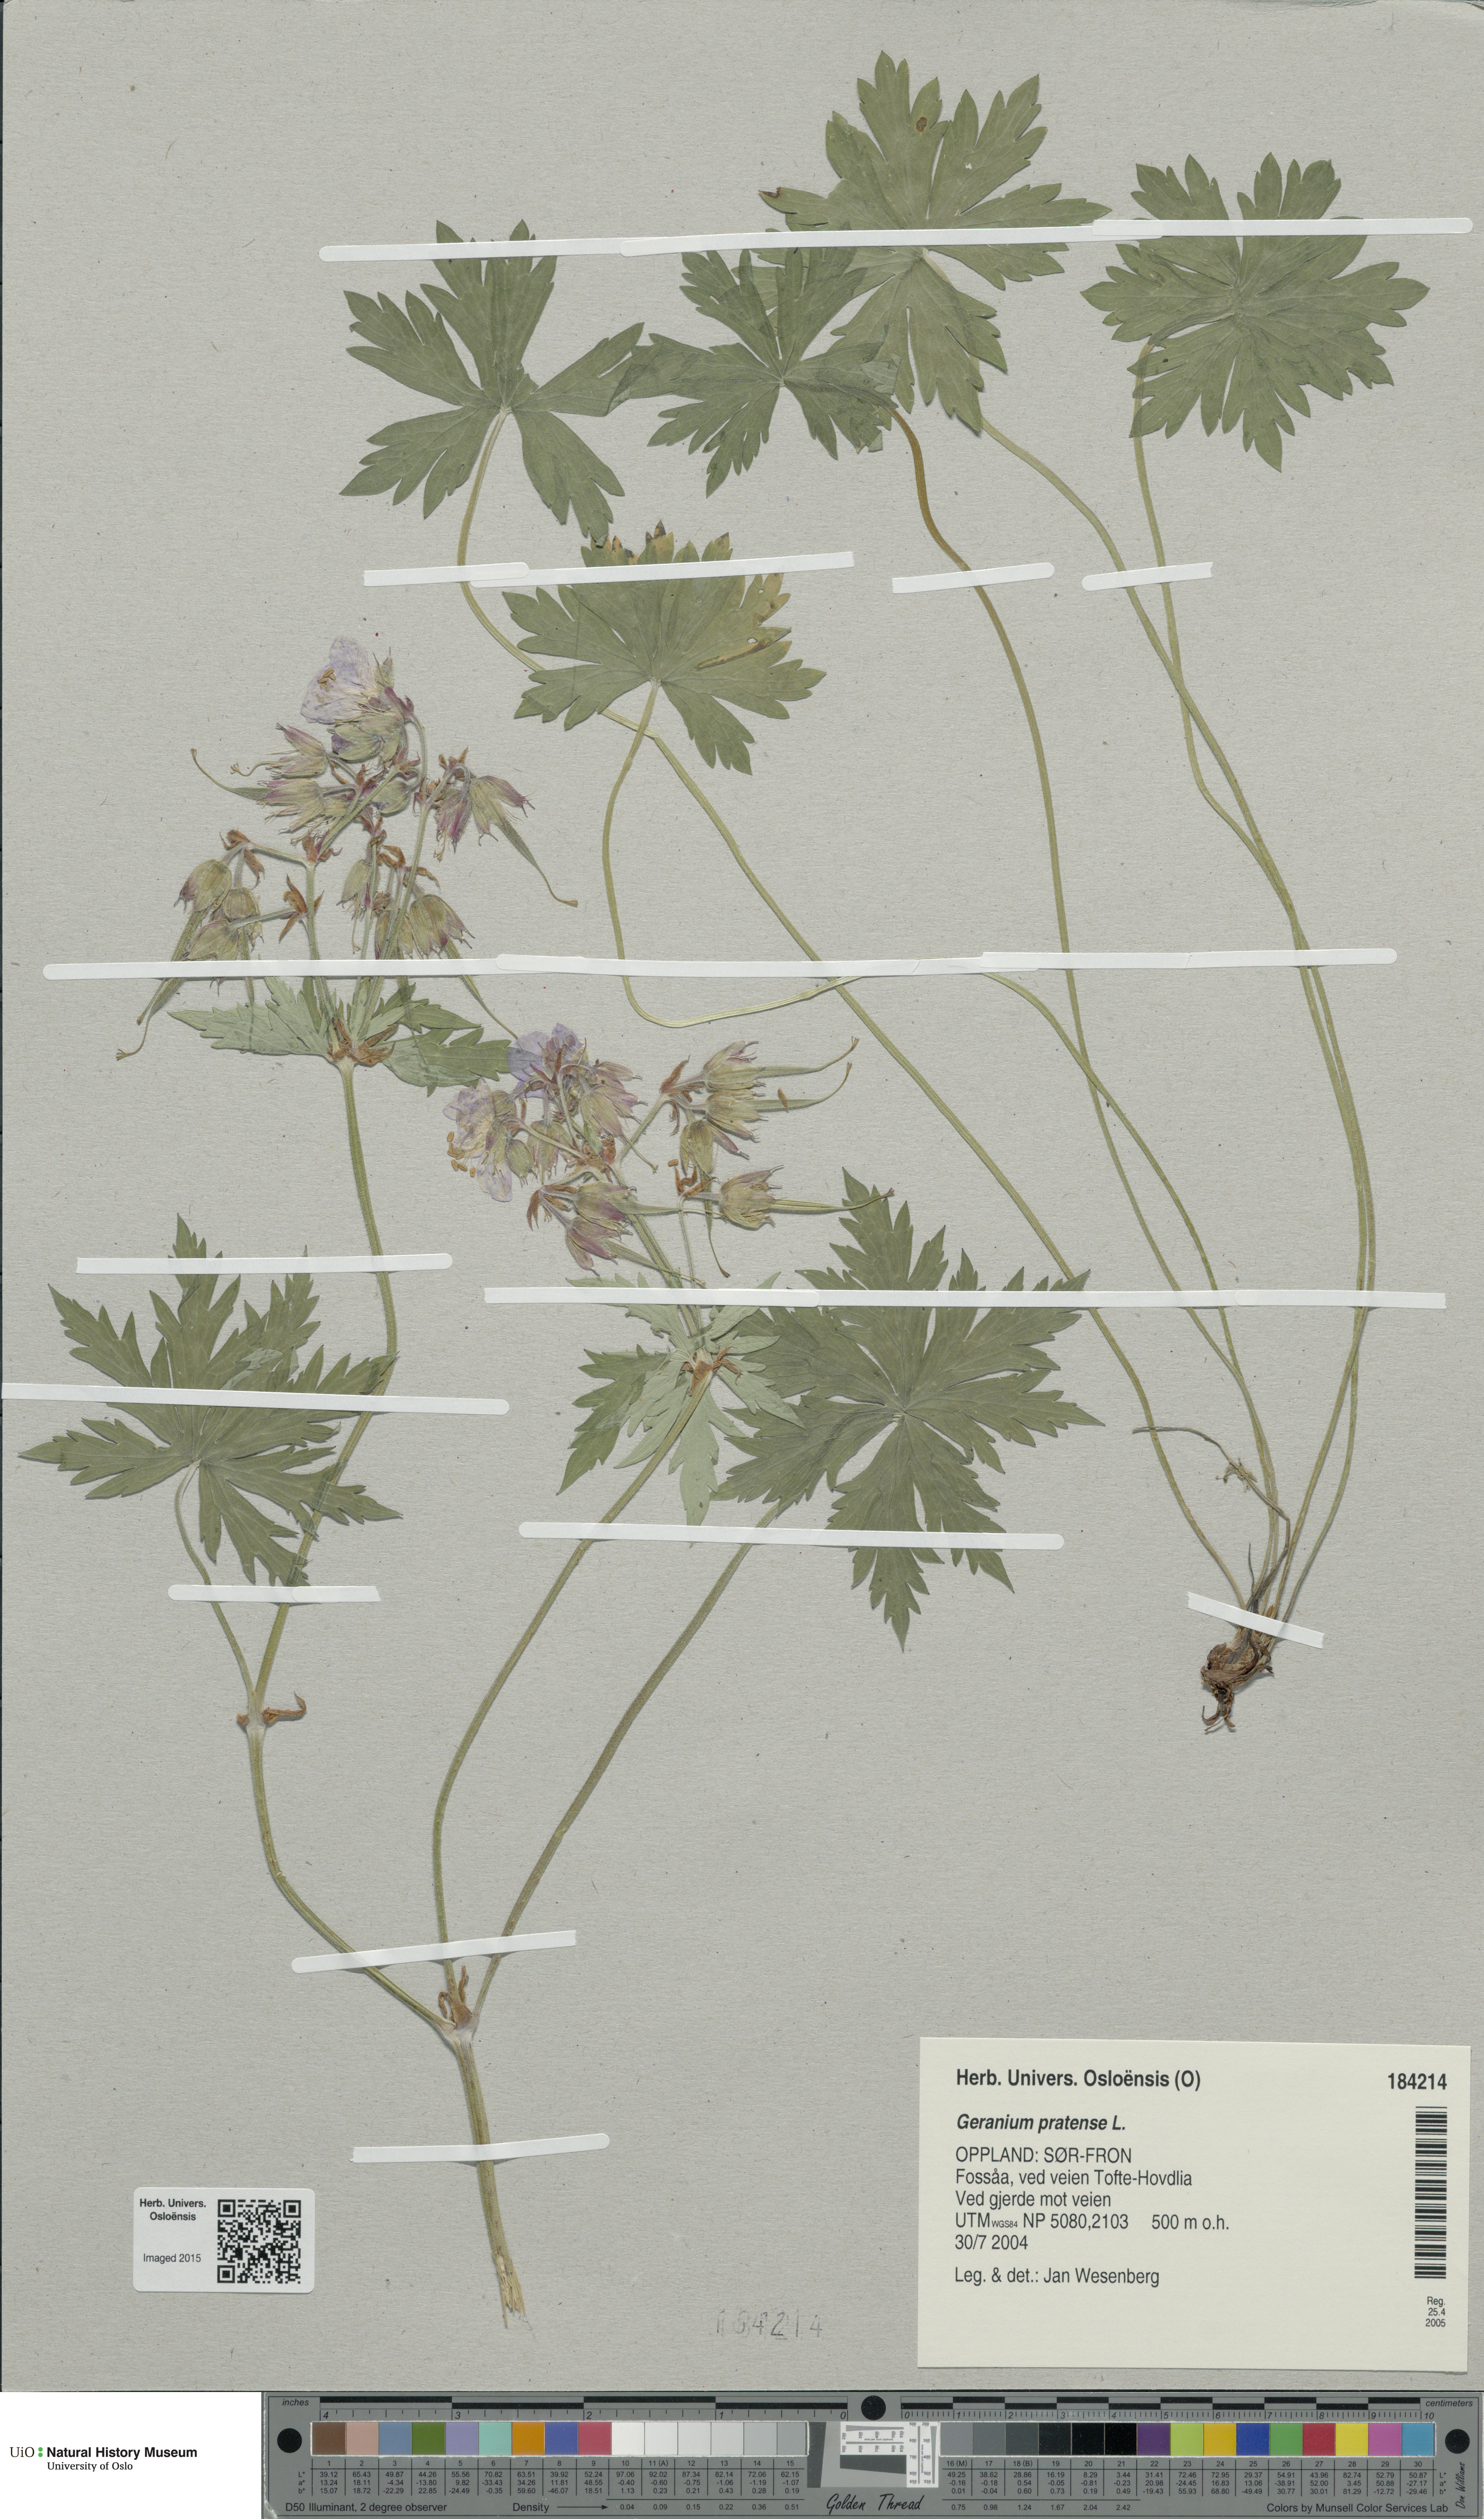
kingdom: Plantae
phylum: Tracheophyta
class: Magnoliopsida
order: Geraniales
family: Geraniaceae
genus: Geranium
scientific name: Geranium pratense
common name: Meadow crane's-bill
